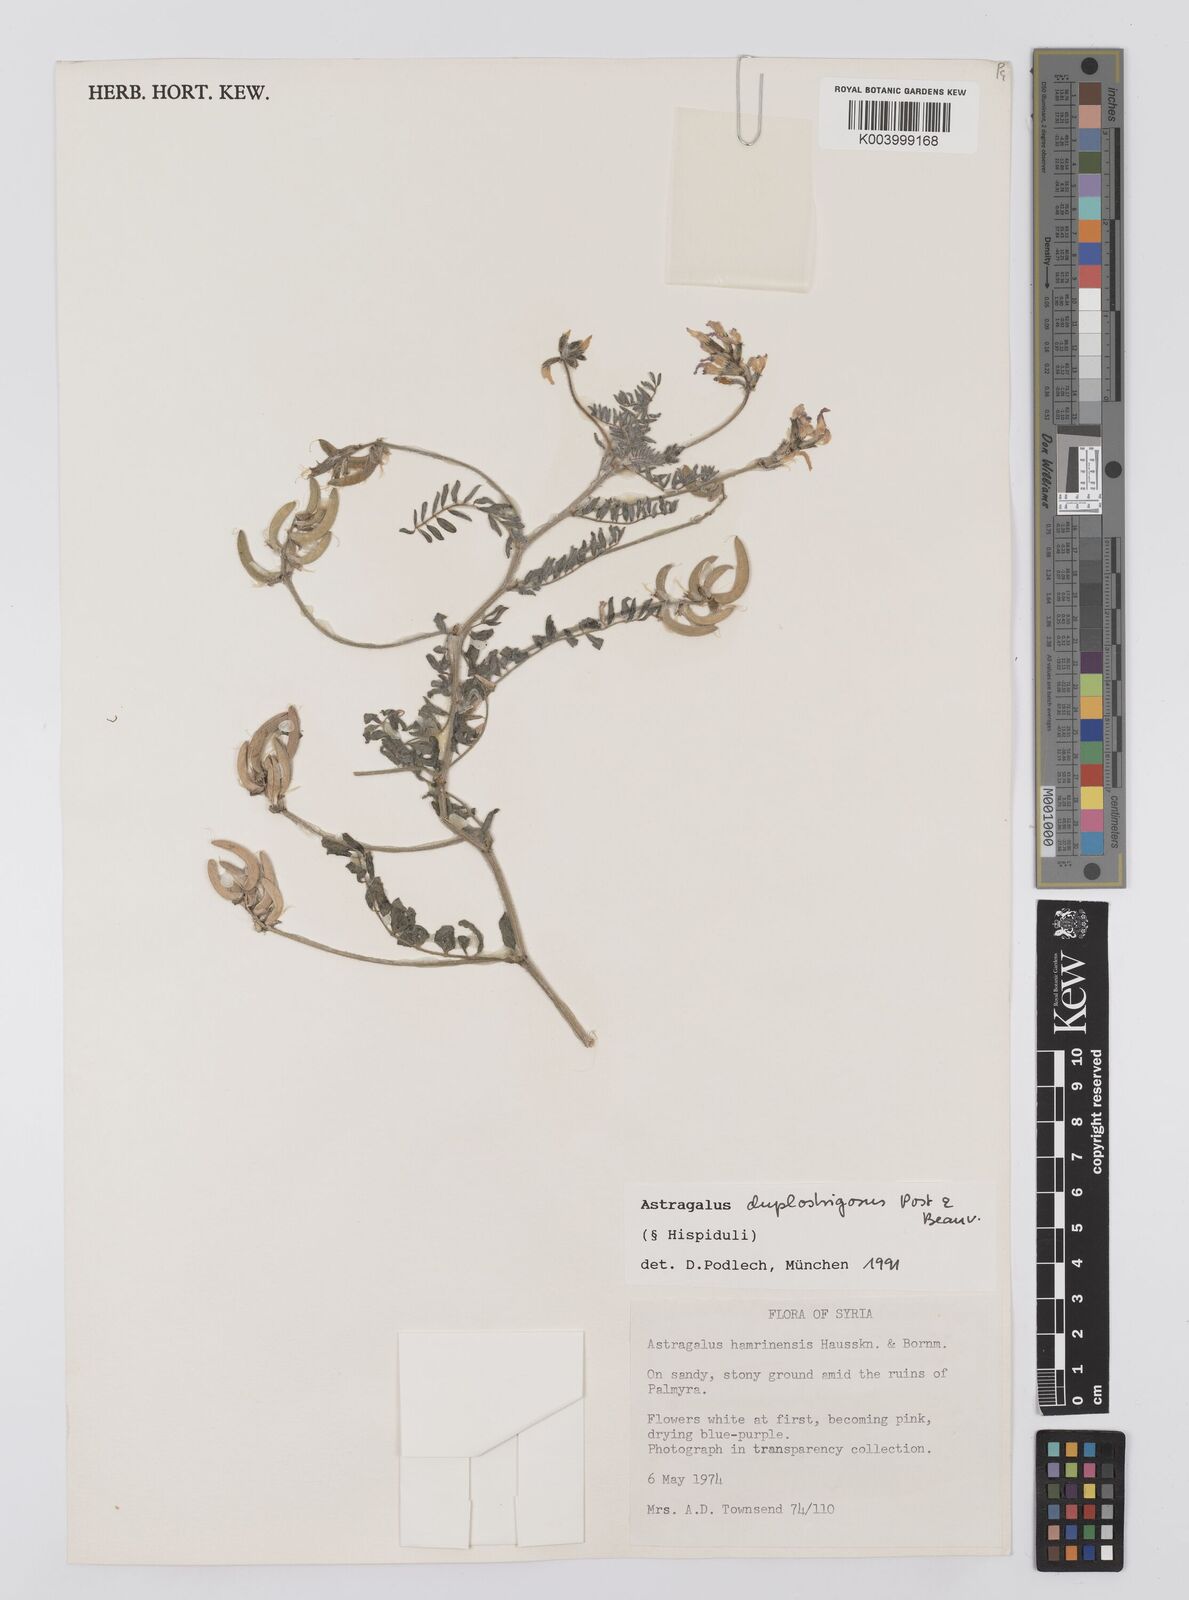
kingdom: Plantae
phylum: Tracheophyta
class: Magnoliopsida
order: Fabales
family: Fabaceae
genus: Astragalus
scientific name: Astragalus duplostrigosus
